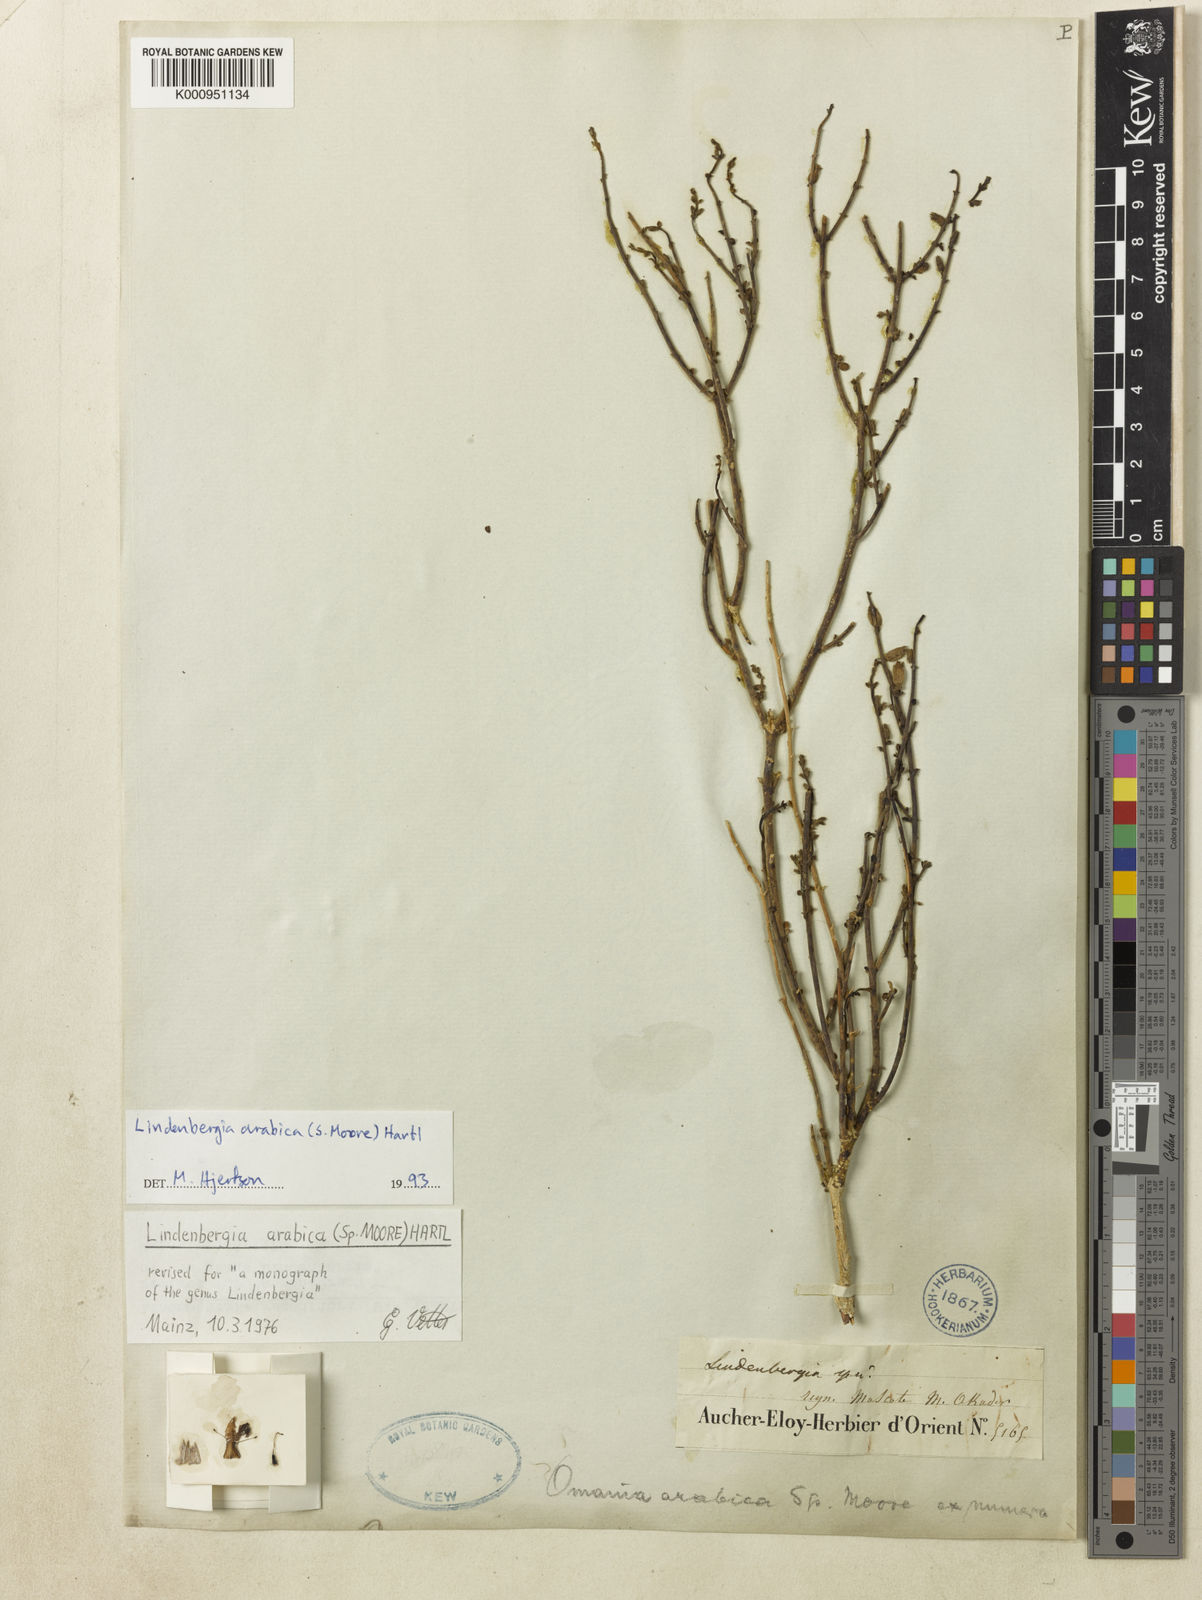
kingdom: Plantae
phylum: Tracheophyta
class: Magnoliopsida
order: Lamiales
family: Orobanchaceae
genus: Lindenbergia
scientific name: Lindenbergia arabica
